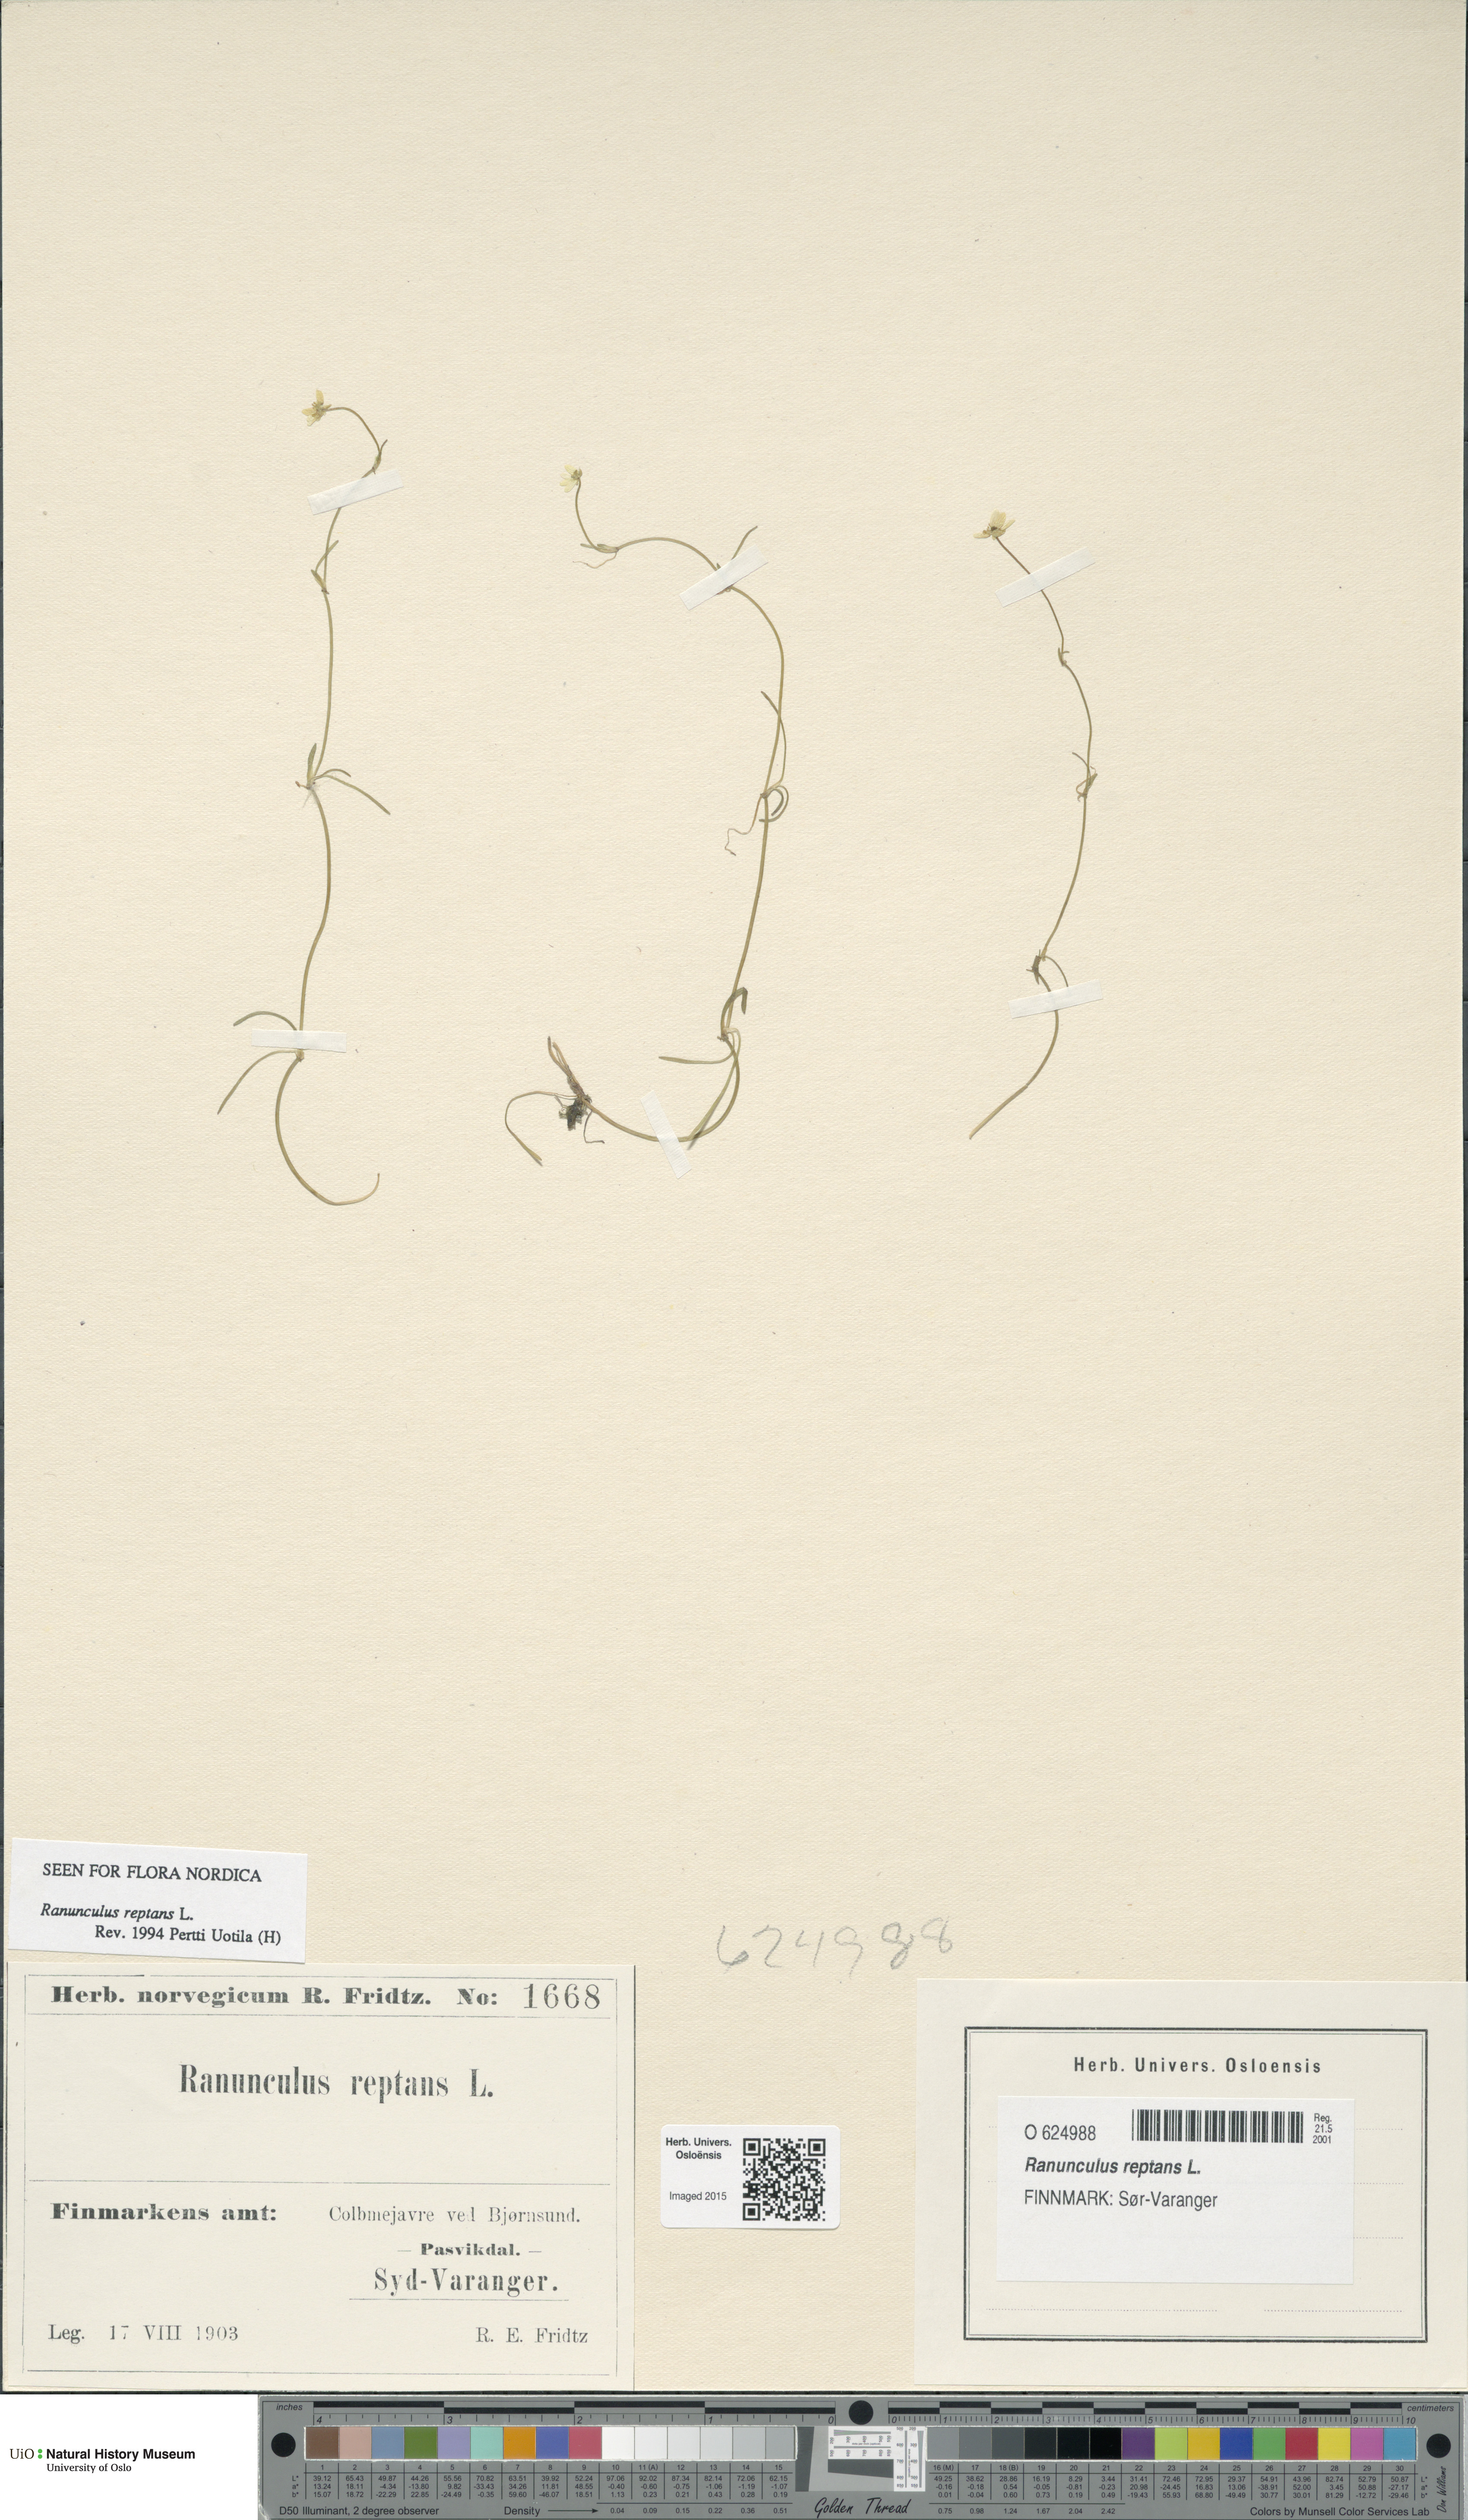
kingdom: Plantae
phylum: Tracheophyta
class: Magnoliopsida
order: Ranunculales
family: Ranunculaceae
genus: Ranunculus
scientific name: Ranunculus reptans
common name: Creeping spearwort
